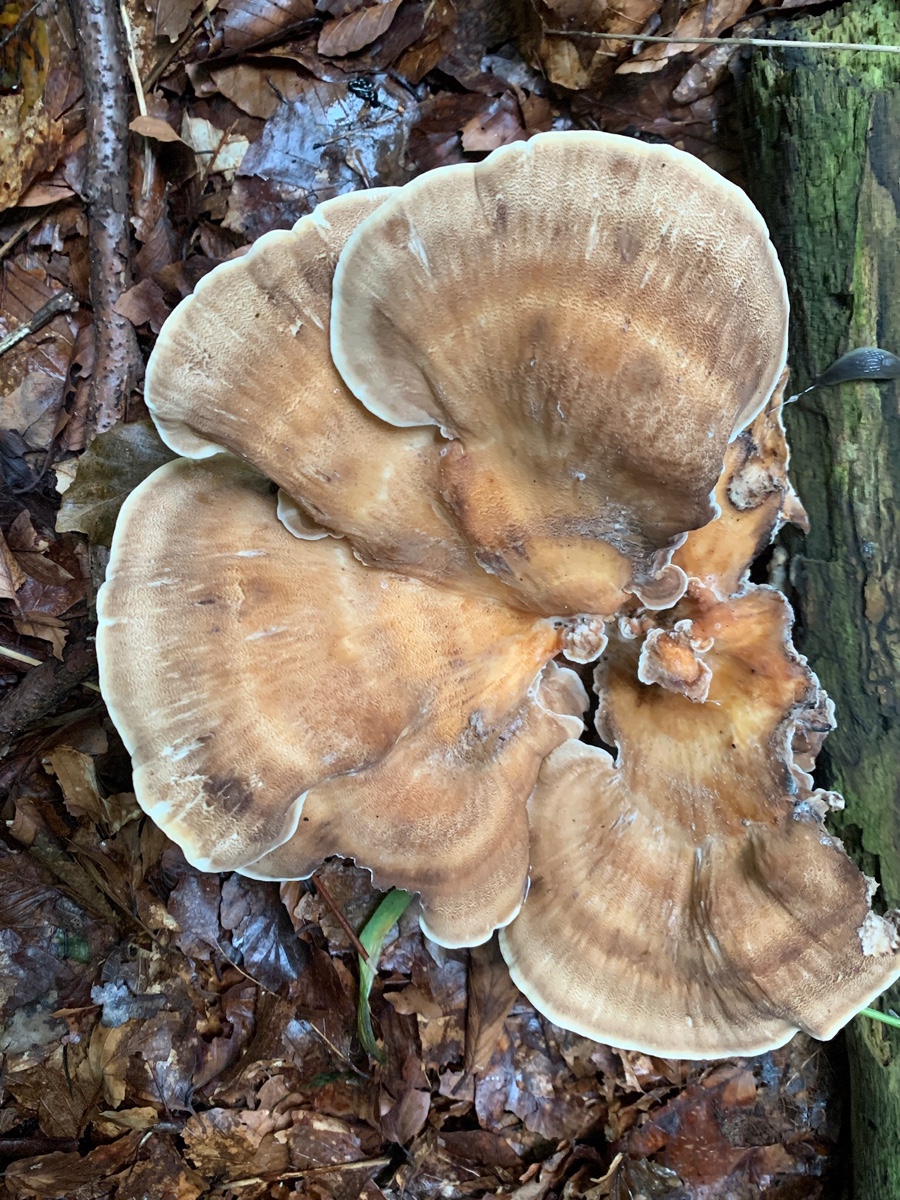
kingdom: Fungi
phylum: Basidiomycota
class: Agaricomycetes
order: Polyporales
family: Meripilaceae
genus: Meripilus
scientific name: Meripilus giganteus
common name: kæmpeporesvamp
